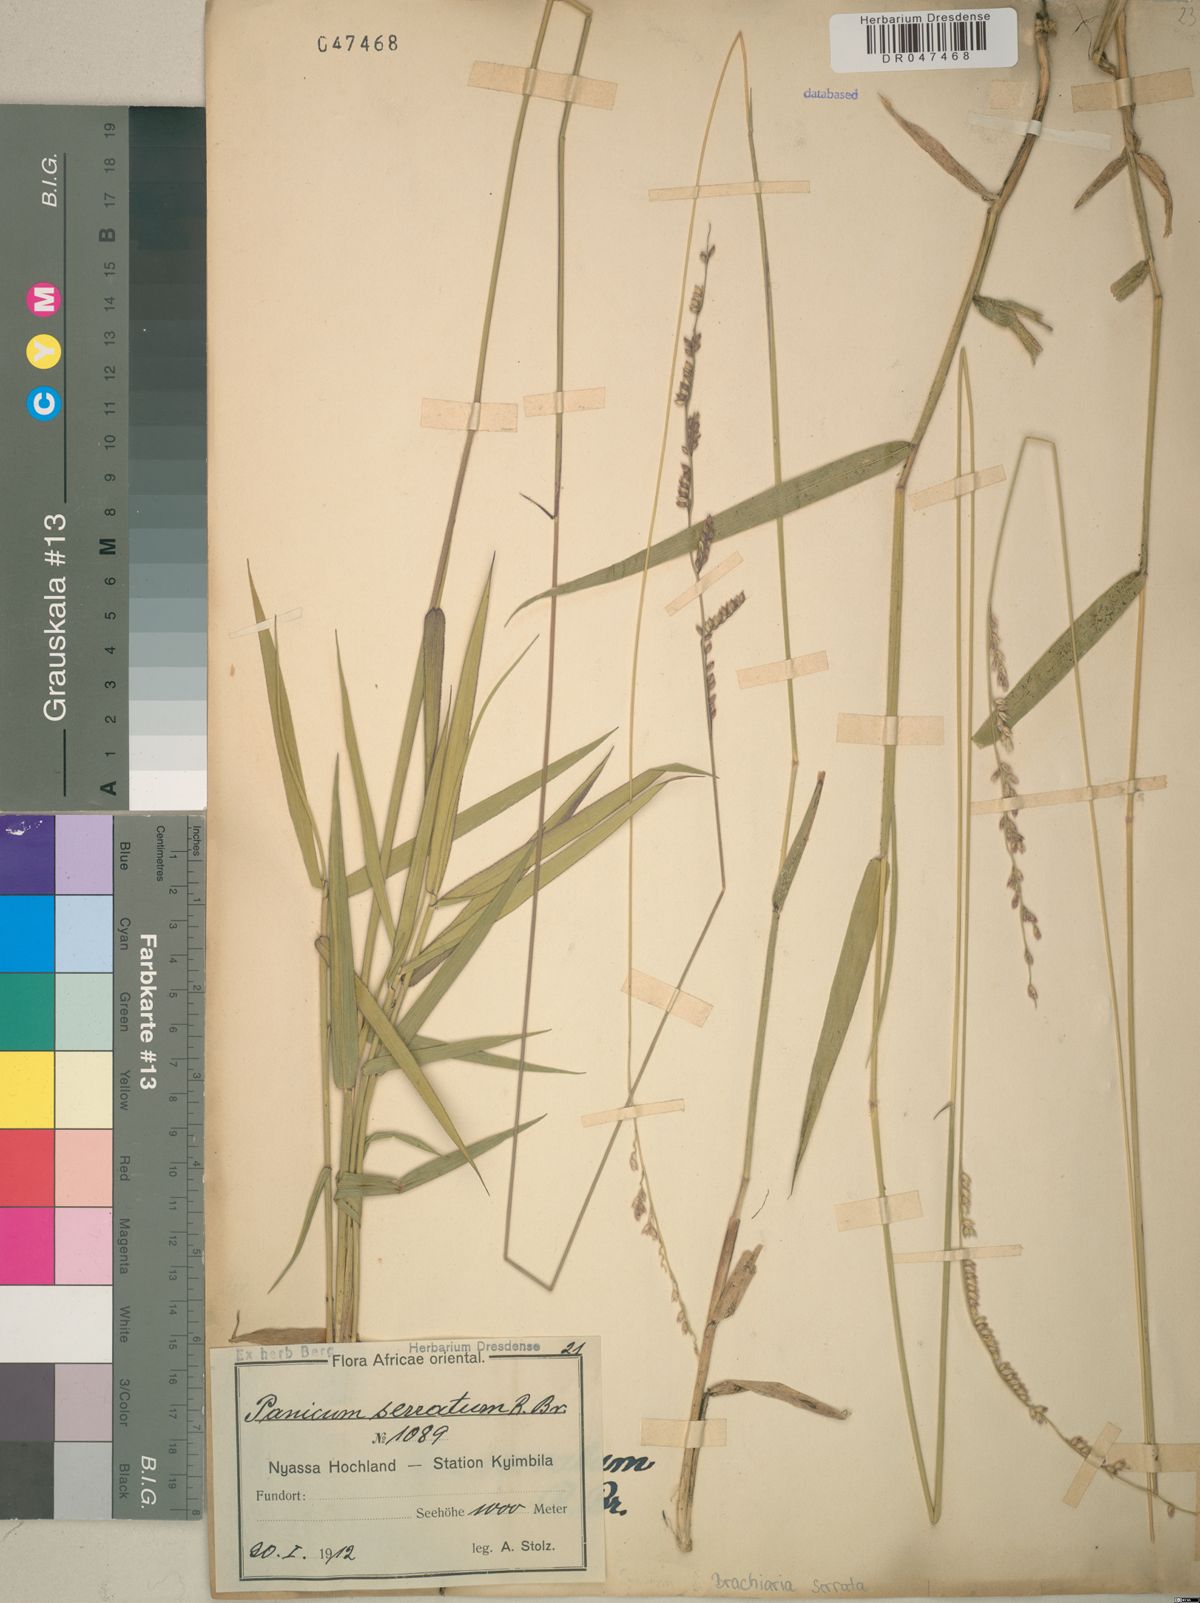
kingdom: Plantae
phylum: Tracheophyta
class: Liliopsida
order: Poales
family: Poaceae
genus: Urochloa
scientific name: Urochloa serrata
